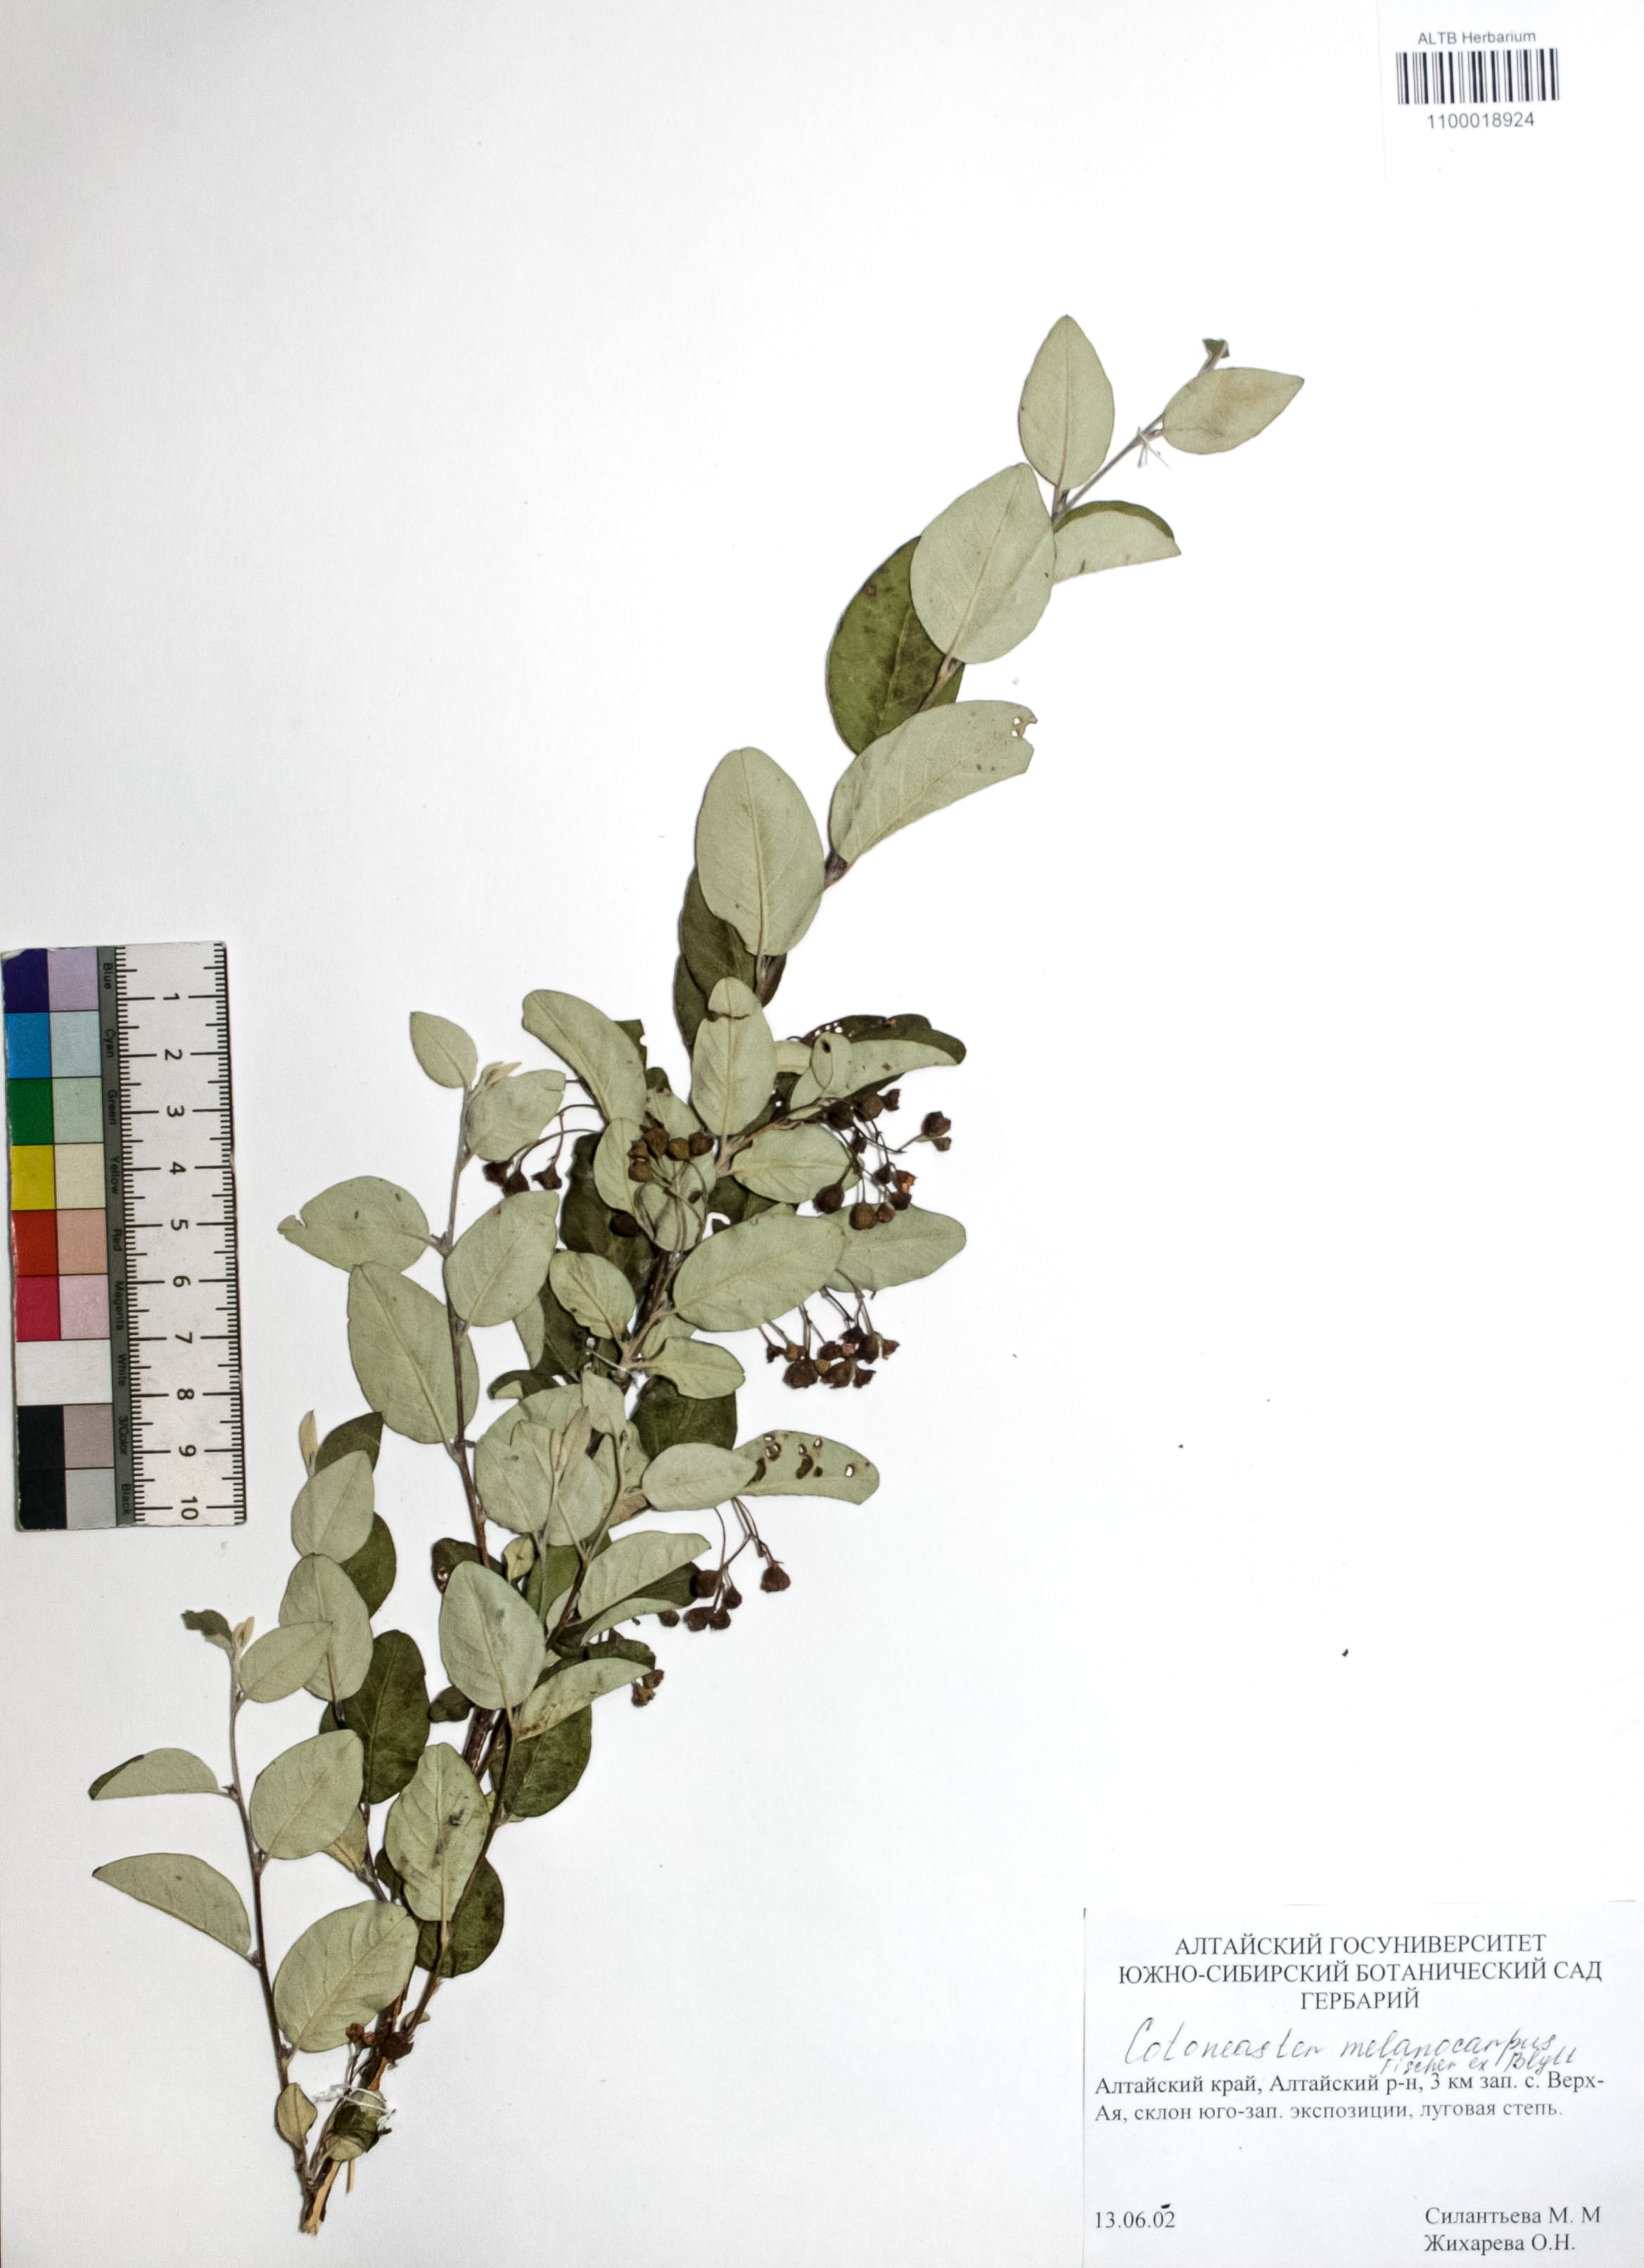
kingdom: Plantae
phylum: Tracheophyta
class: Magnoliopsida
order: Rosales
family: Rosaceae
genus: Cotoneaster
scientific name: Cotoneaster niger
